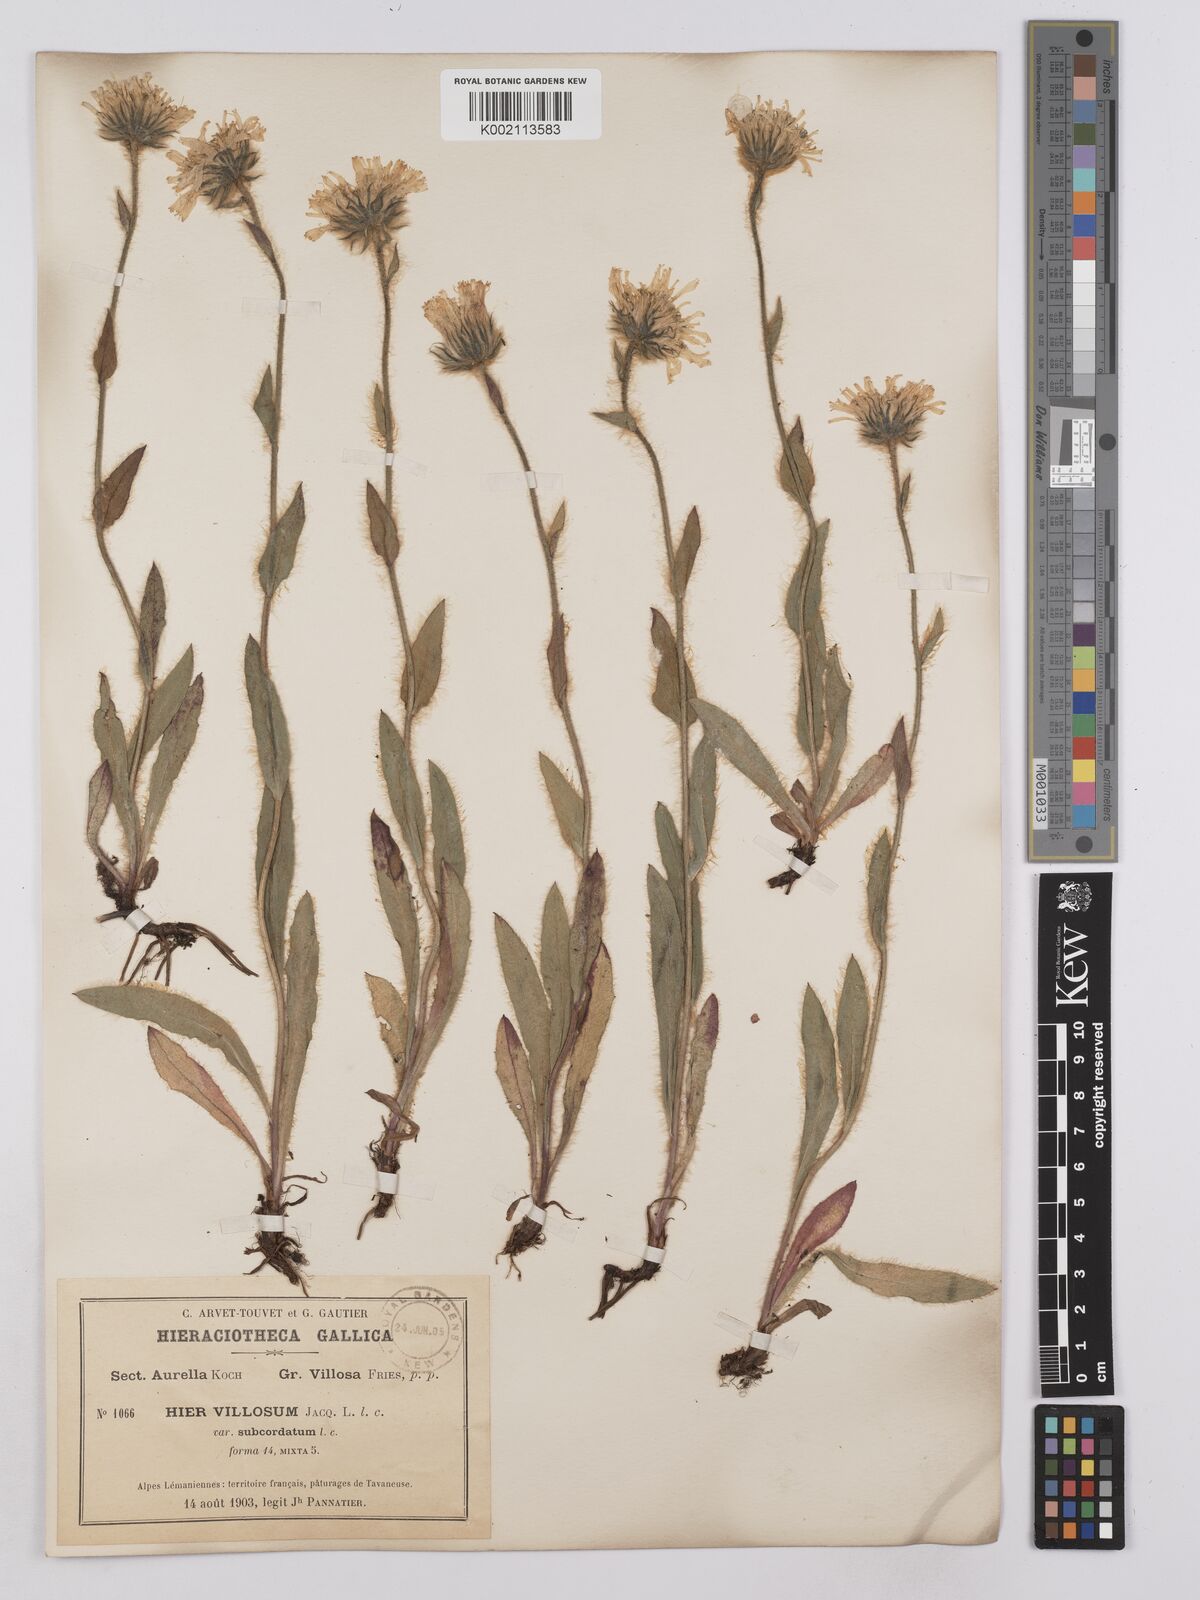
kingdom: Plantae
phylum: Tracheophyta
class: Magnoliopsida
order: Asterales
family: Asteraceae
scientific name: Asteraceae
